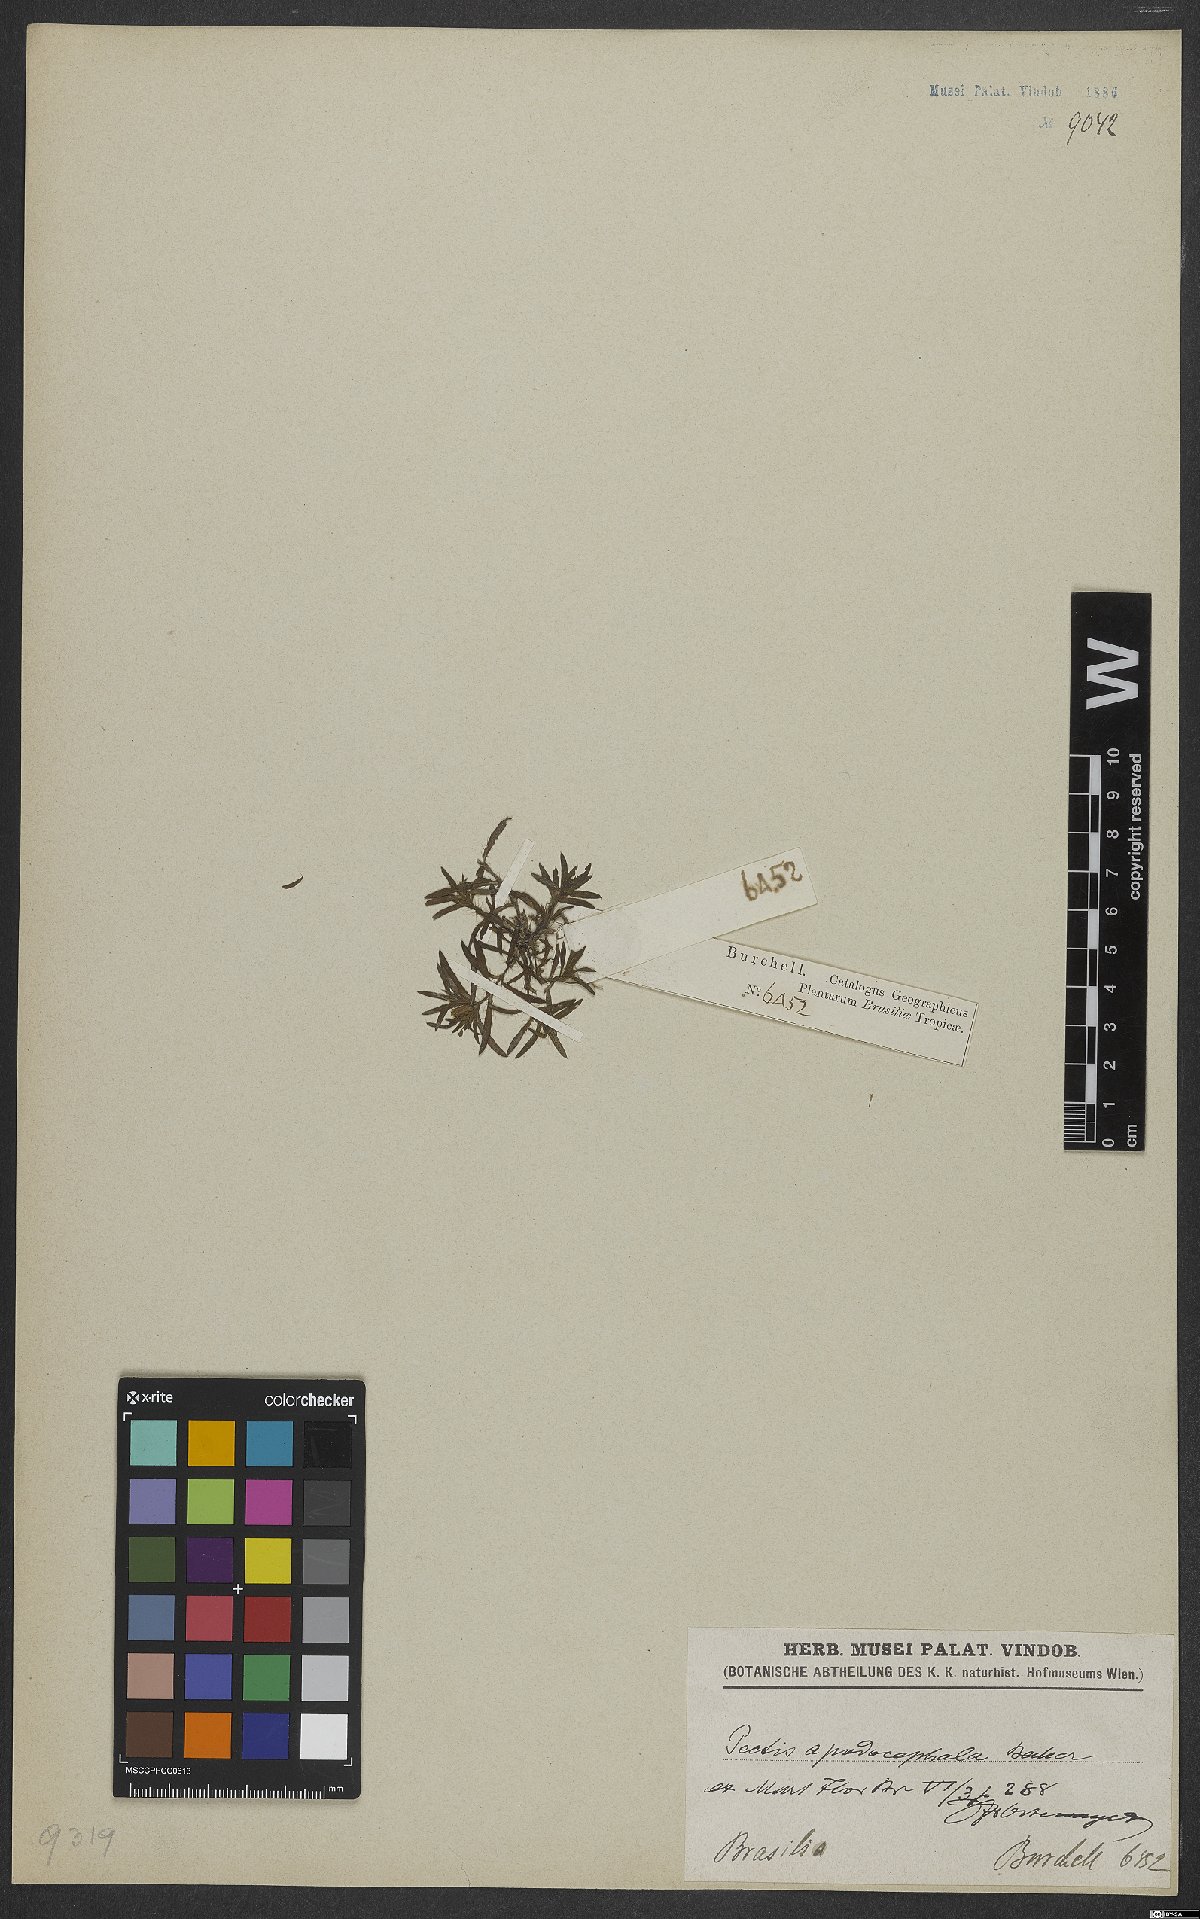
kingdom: Plantae
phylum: Tracheophyta
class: Magnoliopsida
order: Asterales
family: Asteraceae
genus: Pectis
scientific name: Pectis brevipedunculata
